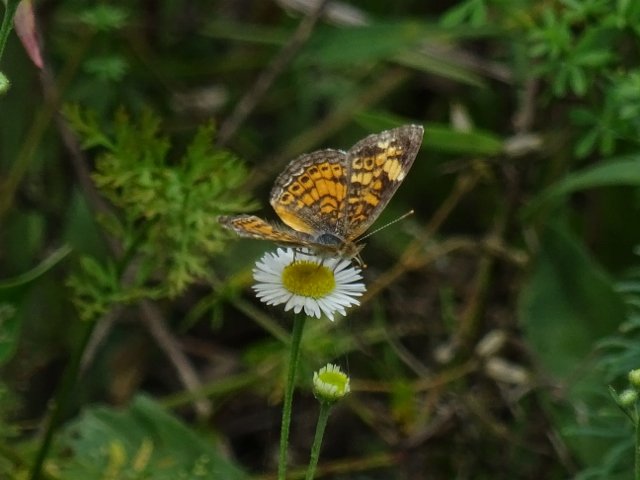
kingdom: Animalia
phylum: Arthropoda
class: Insecta
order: Lepidoptera
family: Nymphalidae
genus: Phyciodes
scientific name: Phyciodes tharos
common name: Northern Crescent
